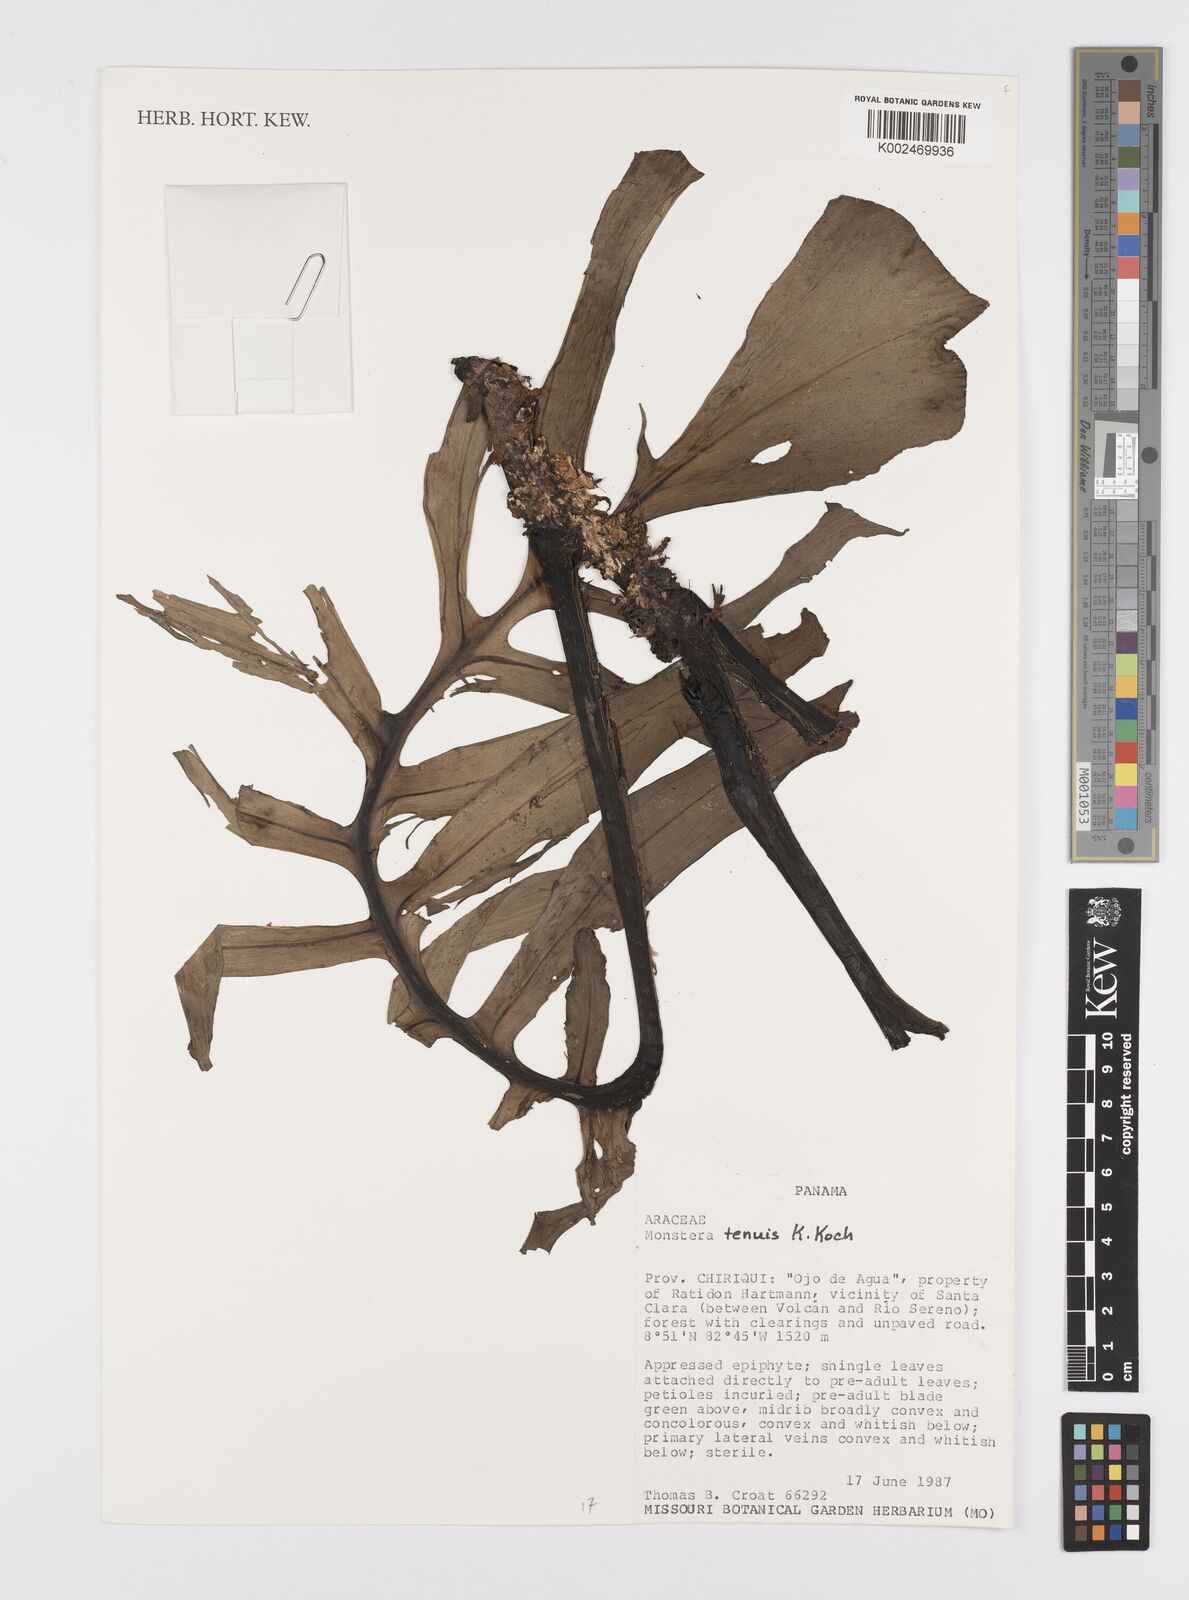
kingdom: Plantae
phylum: Tracheophyta
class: Liliopsida
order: Alismatales
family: Araceae
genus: Monstera
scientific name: Monstera tenuis
